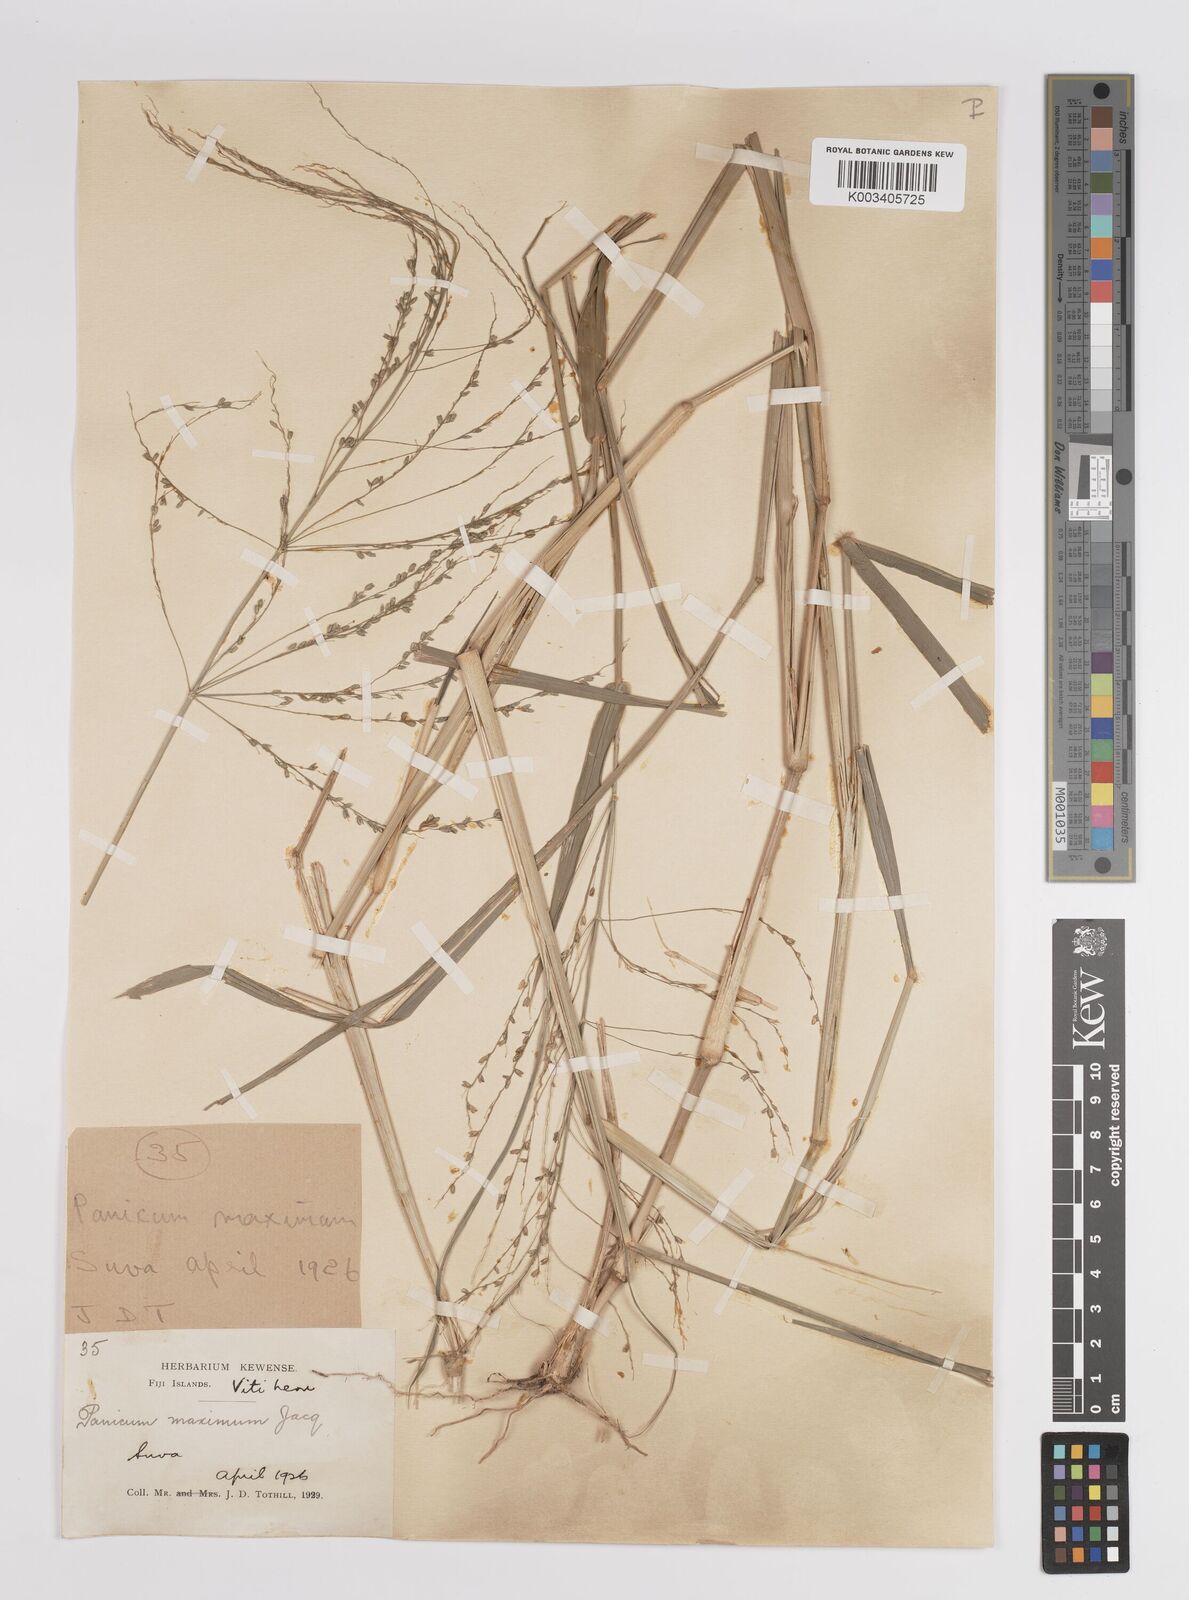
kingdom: Plantae
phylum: Tracheophyta
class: Liliopsida
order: Poales
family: Poaceae
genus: Megathyrsus
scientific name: Megathyrsus maximus
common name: Guineagrass
